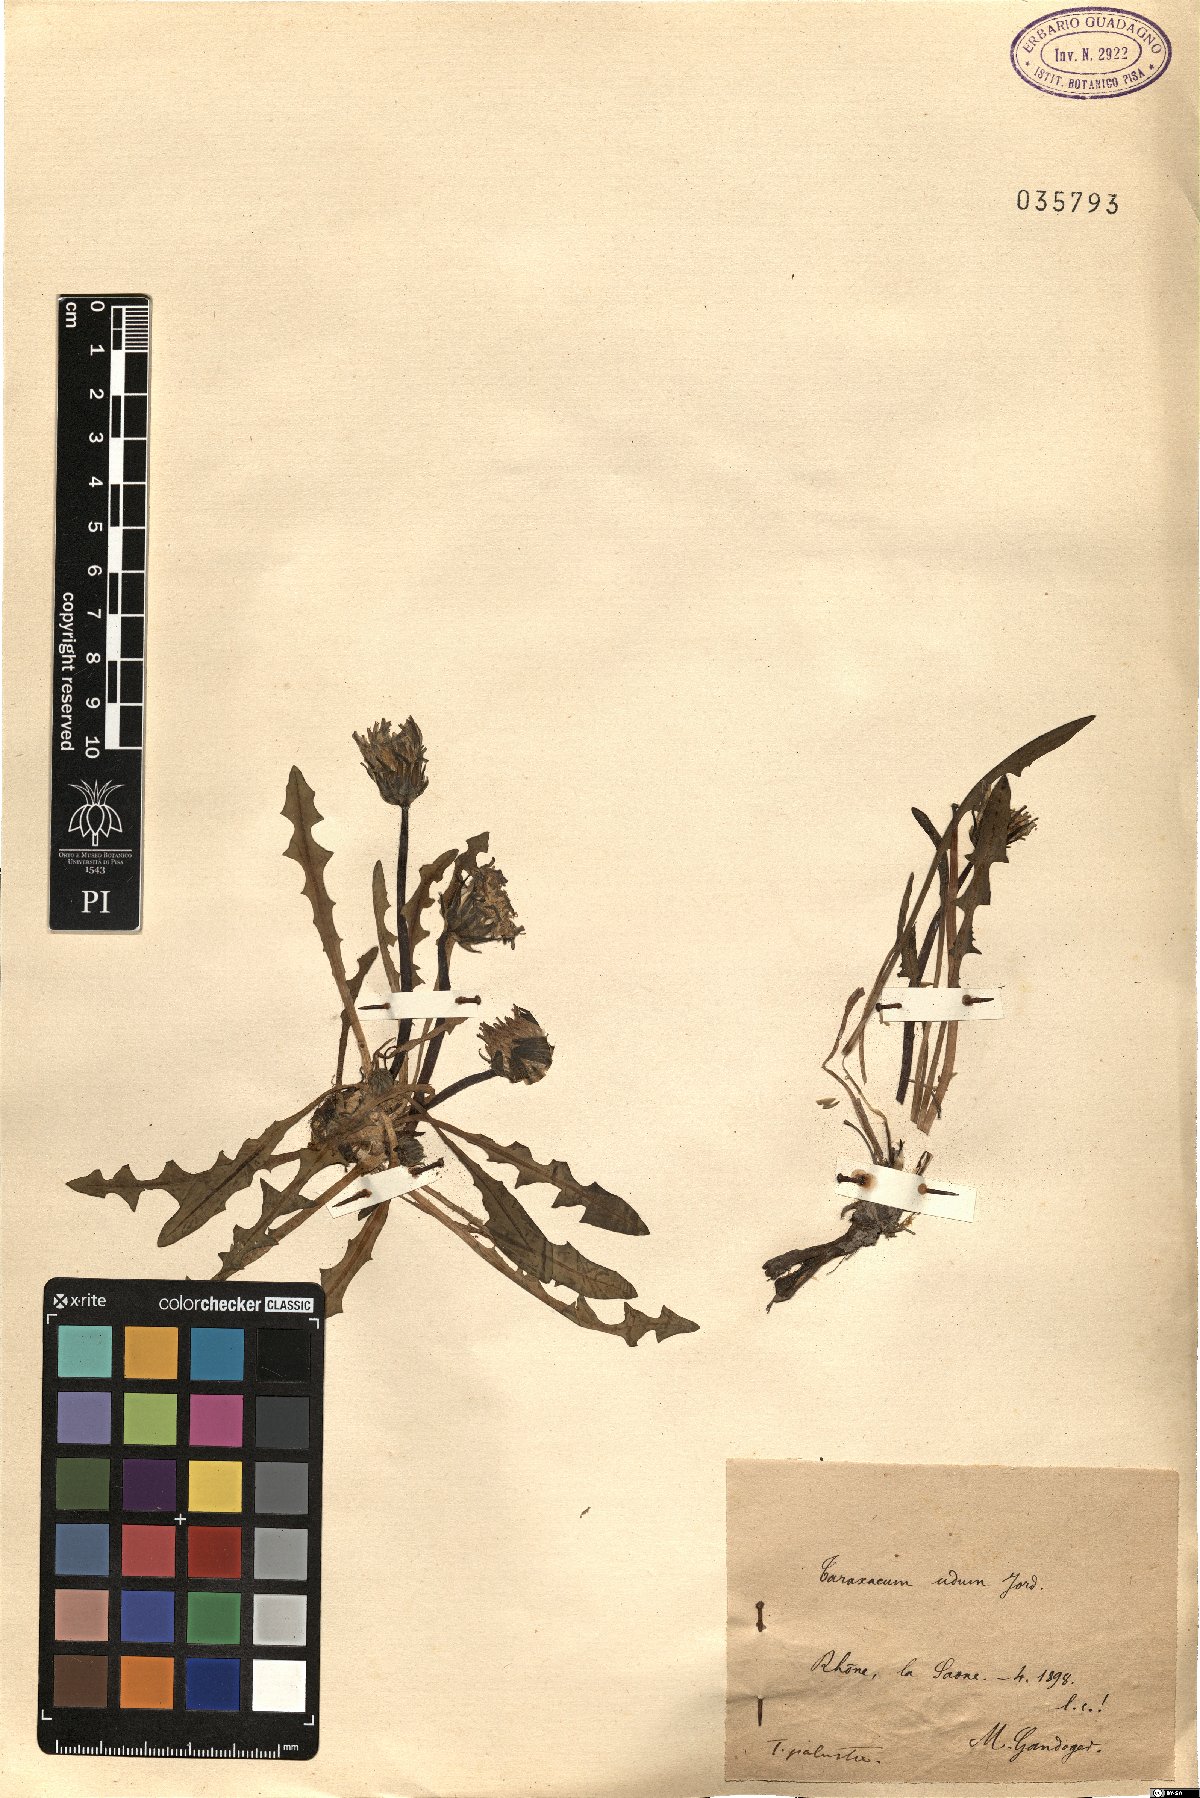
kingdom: Plantae
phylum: Tracheophyta
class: Magnoliopsida
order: Asterales
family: Asteraceae
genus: Taraxacum
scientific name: Taraxacum palustre
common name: Marsh dandelion
